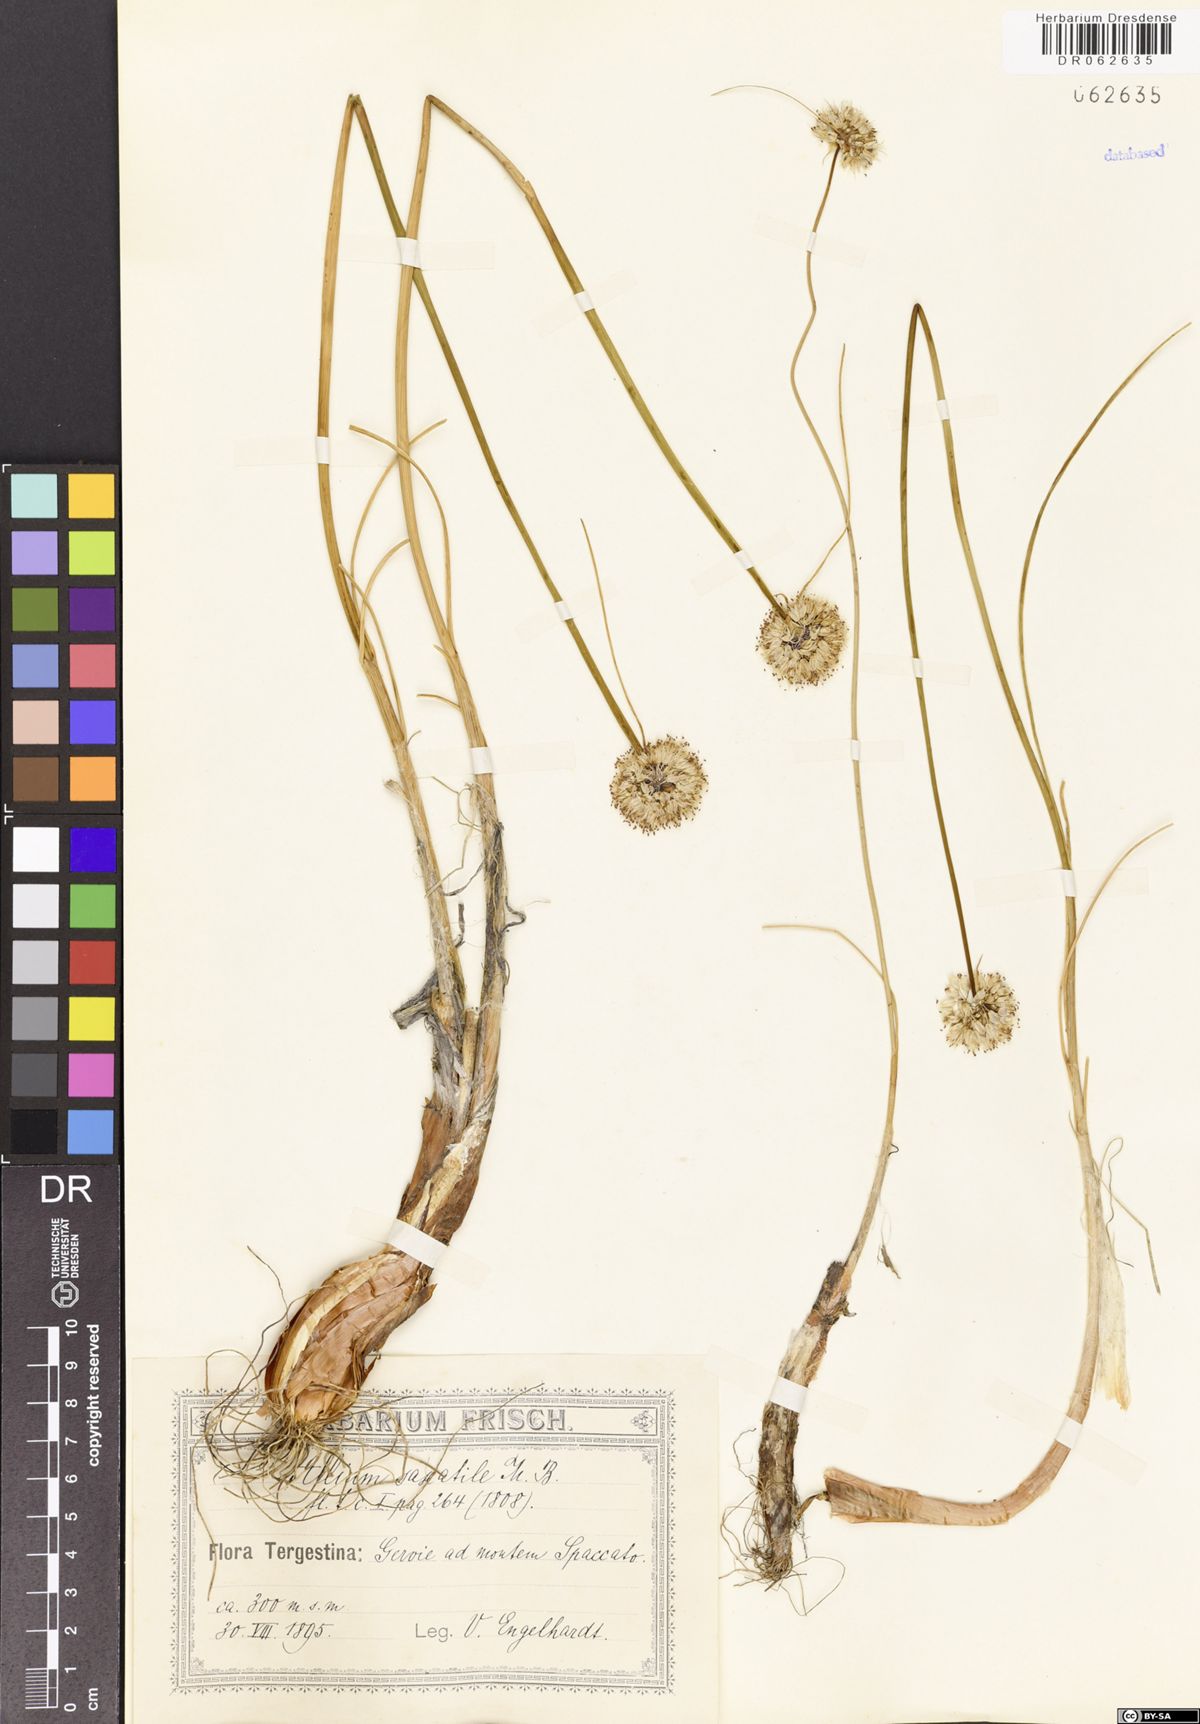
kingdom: Plantae
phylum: Tracheophyta
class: Liliopsida
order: Asparagales
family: Amaryllidaceae
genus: Allium
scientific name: Allium saxatile
